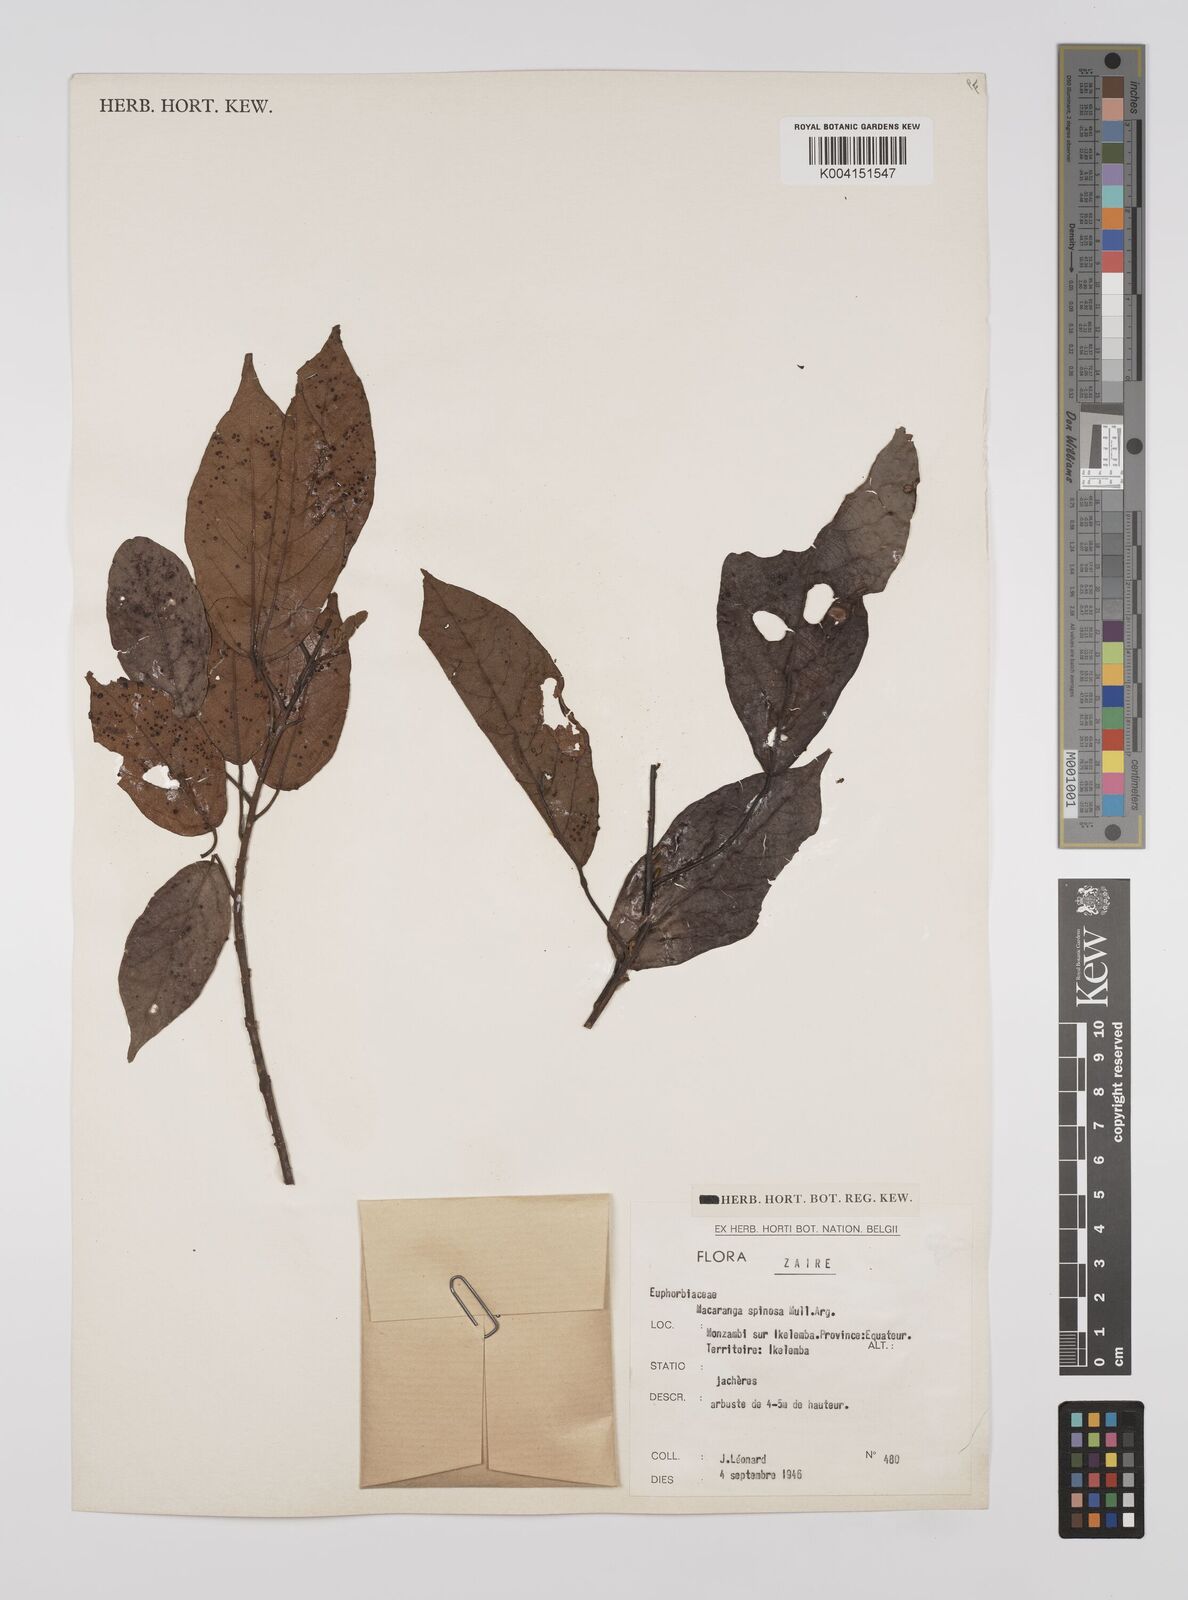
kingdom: Plantae
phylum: Tracheophyta
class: Magnoliopsida
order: Malpighiales
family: Euphorbiaceae
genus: Macaranga
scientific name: Macaranga spinosa
